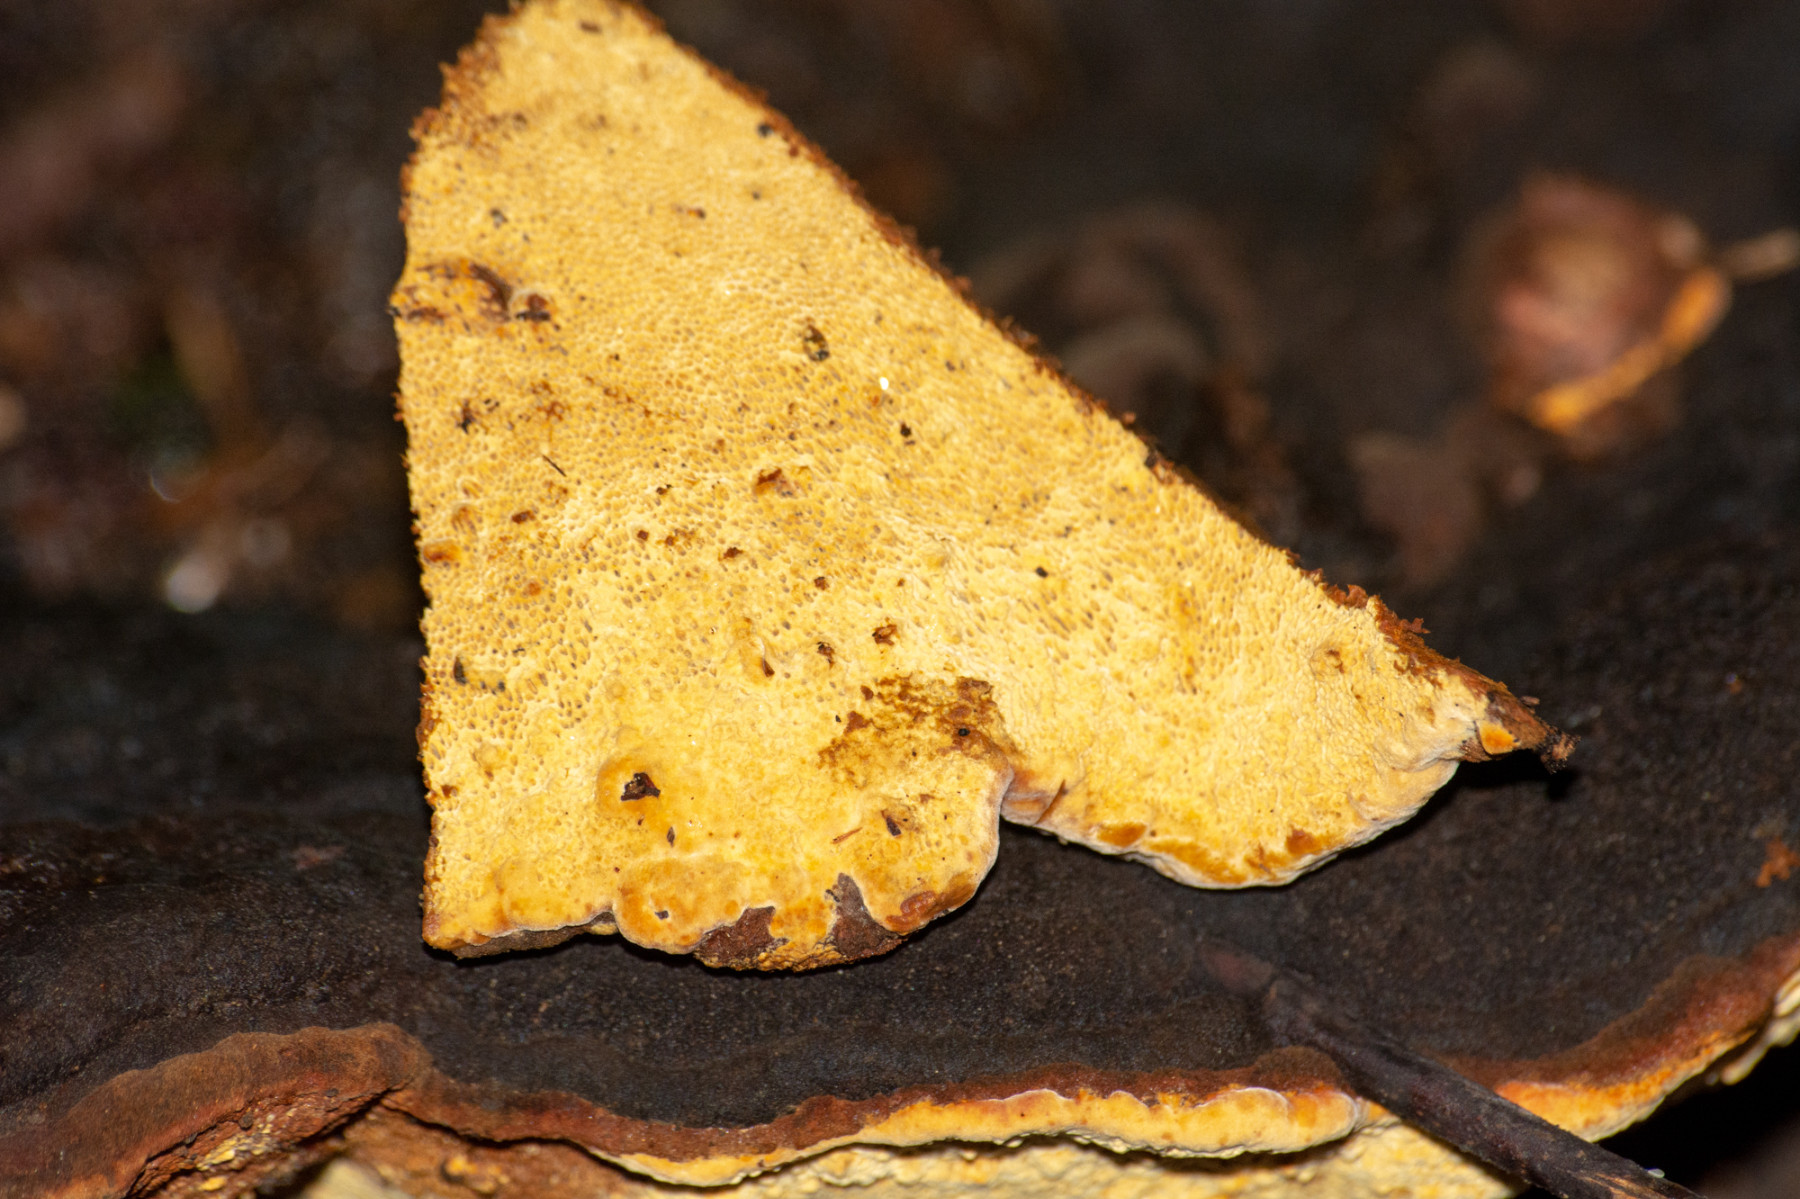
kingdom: Fungi
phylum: Basidiomycota
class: Agaricomycetes
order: Gloeophyllales
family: Gloeophyllaceae
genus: Gloeophyllum
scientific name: Gloeophyllum odoratum
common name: duftende korkhat
